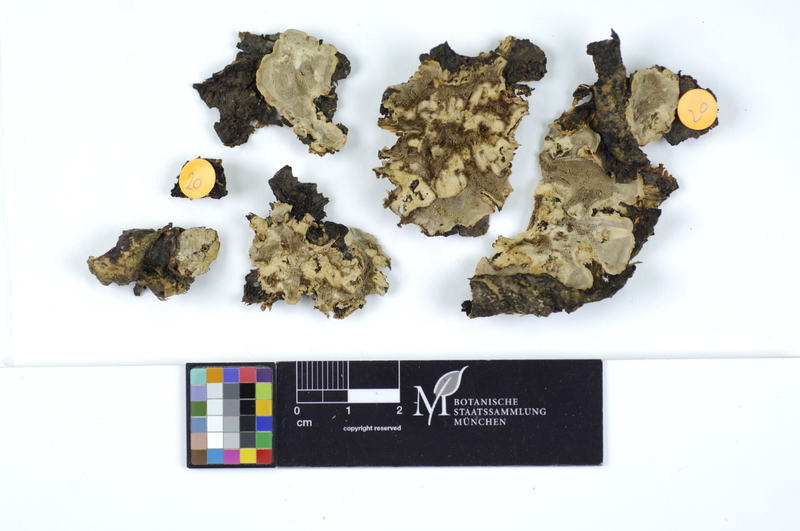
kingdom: Fungi
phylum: Basidiomycota
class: Agaricomycetes
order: Polyporales
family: Phanerochaetaceae
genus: Bjerkandera
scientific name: Bjerkandera adusta
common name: Smoky bracket
